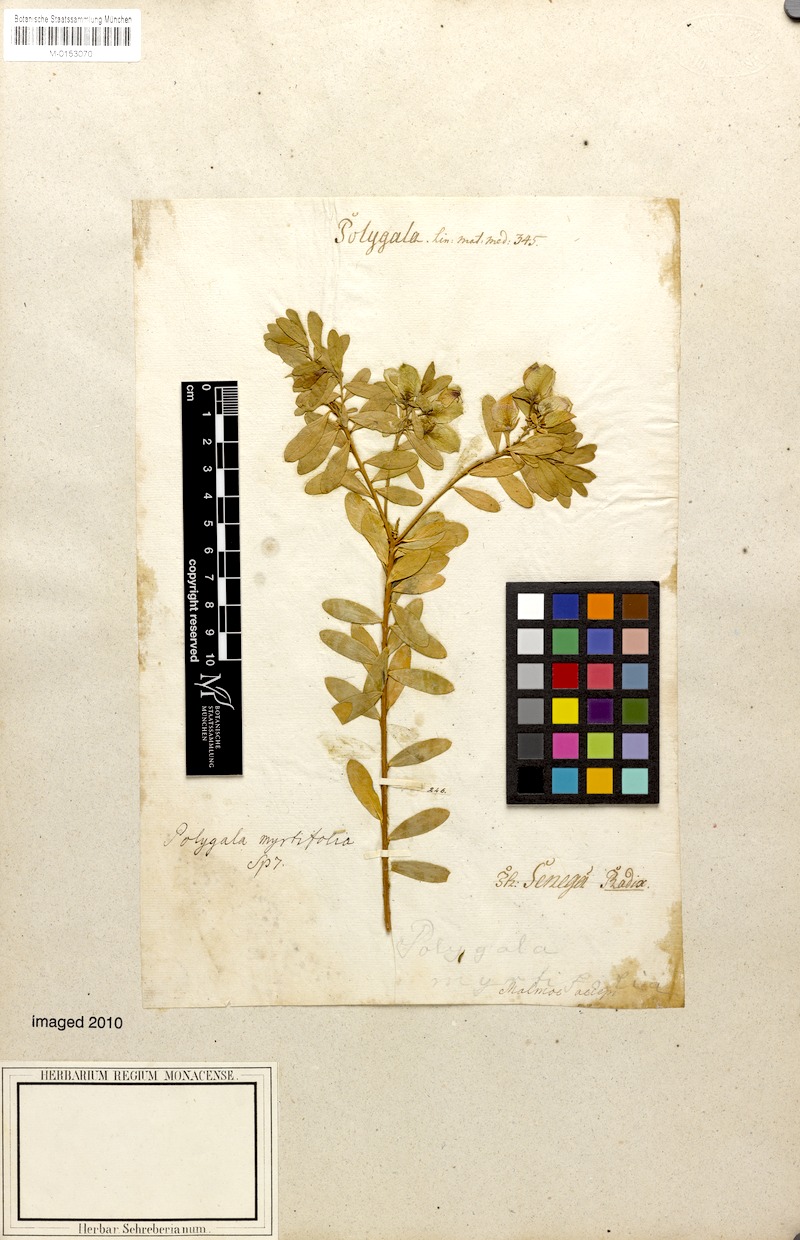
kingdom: Plantae
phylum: Tracheophyta
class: Magnoliopsida
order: Fabales
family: Polygalaceae
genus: Polygala
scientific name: Polygala myrtifolia
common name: Myrtle-leaf milkwort
